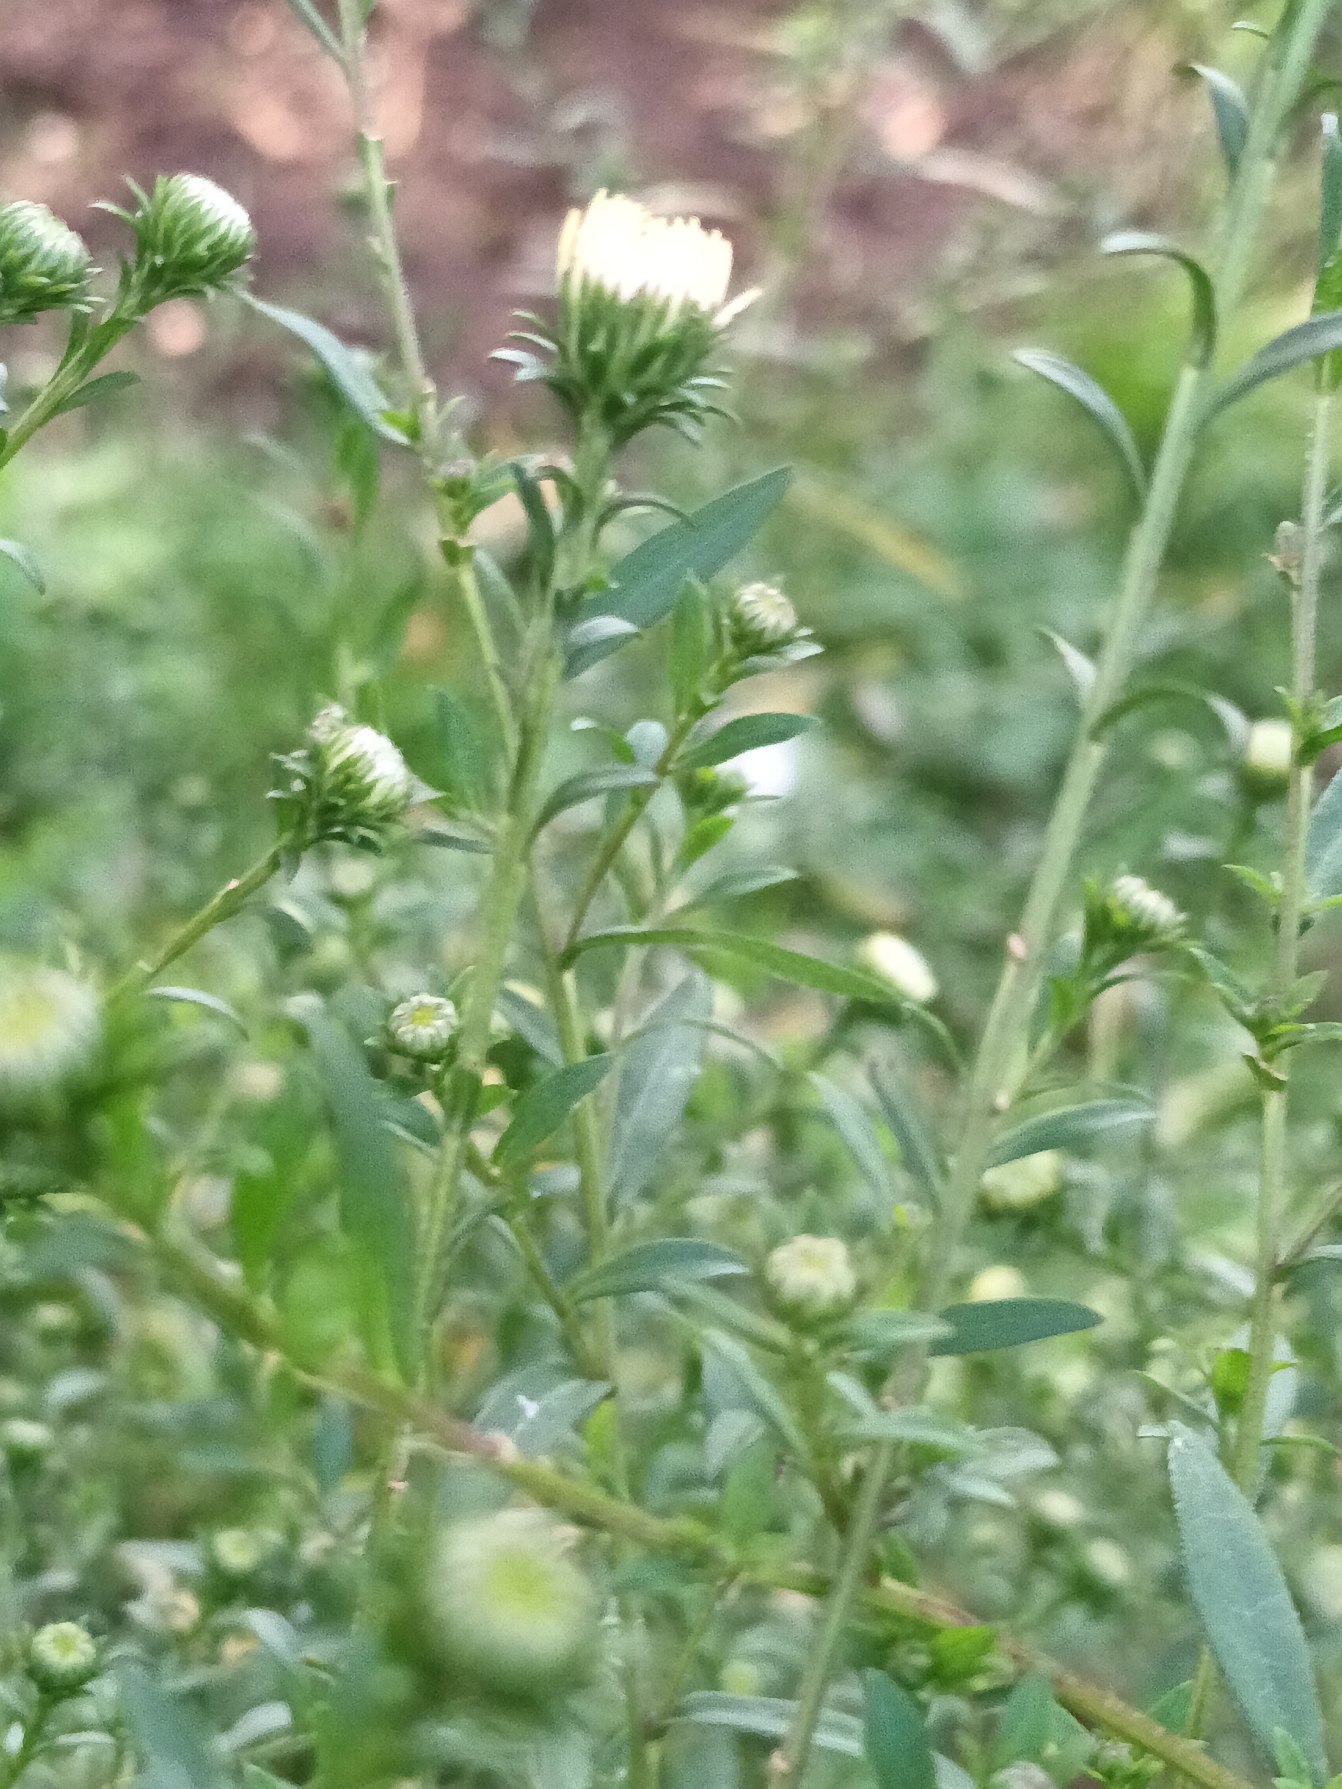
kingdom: Plantae
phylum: Tracheophyta
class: Magnoliopsida
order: Asterales
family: Asteraceae
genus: Symphyotrichum
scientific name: Symphyotrichum salignum
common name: Pilebladet asters
